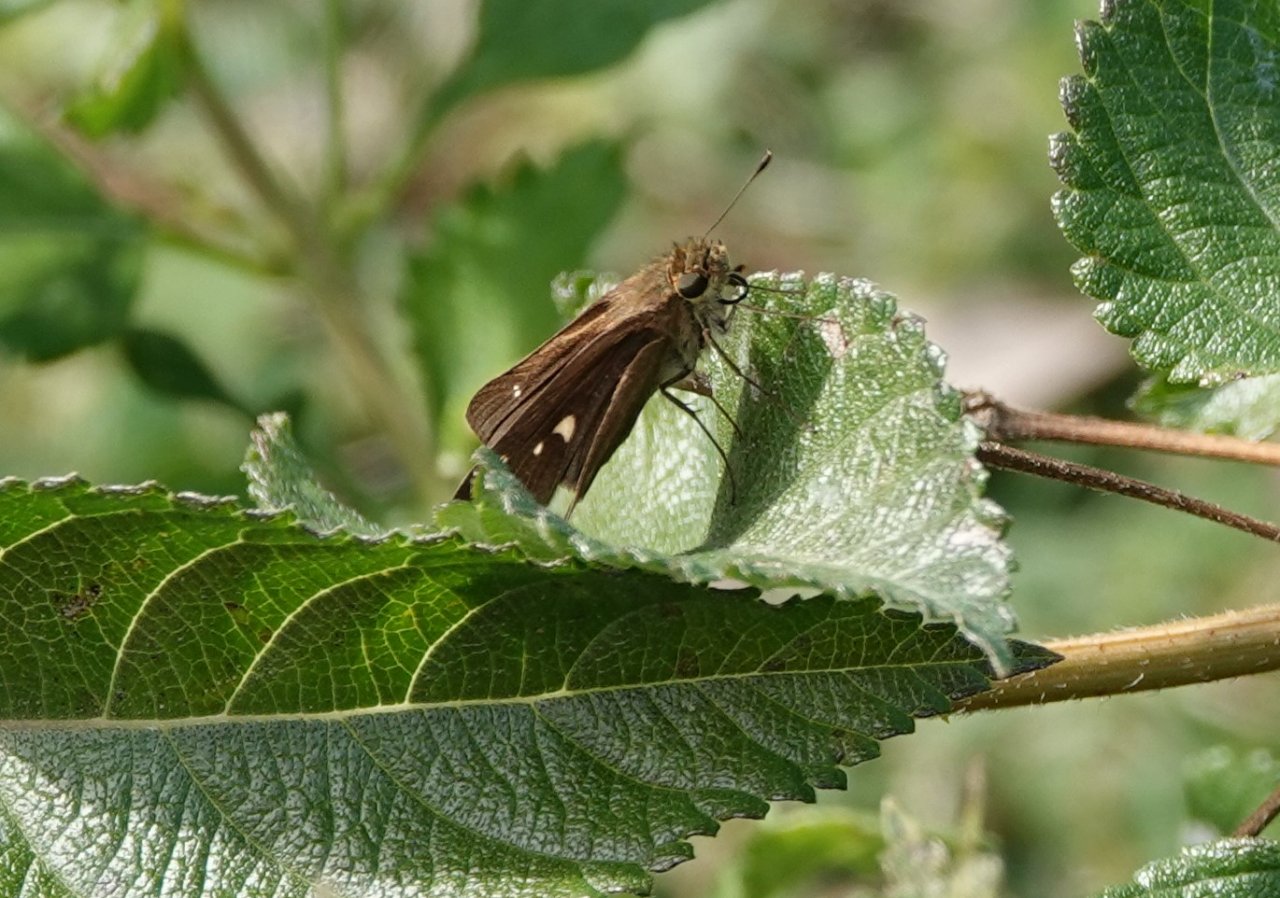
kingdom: Animalia
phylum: Arthropoda
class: Insecta
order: Lepidoptera
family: Hesperiidae
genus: Panoquina
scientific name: Panoquina ocola
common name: Ocola Skipper
